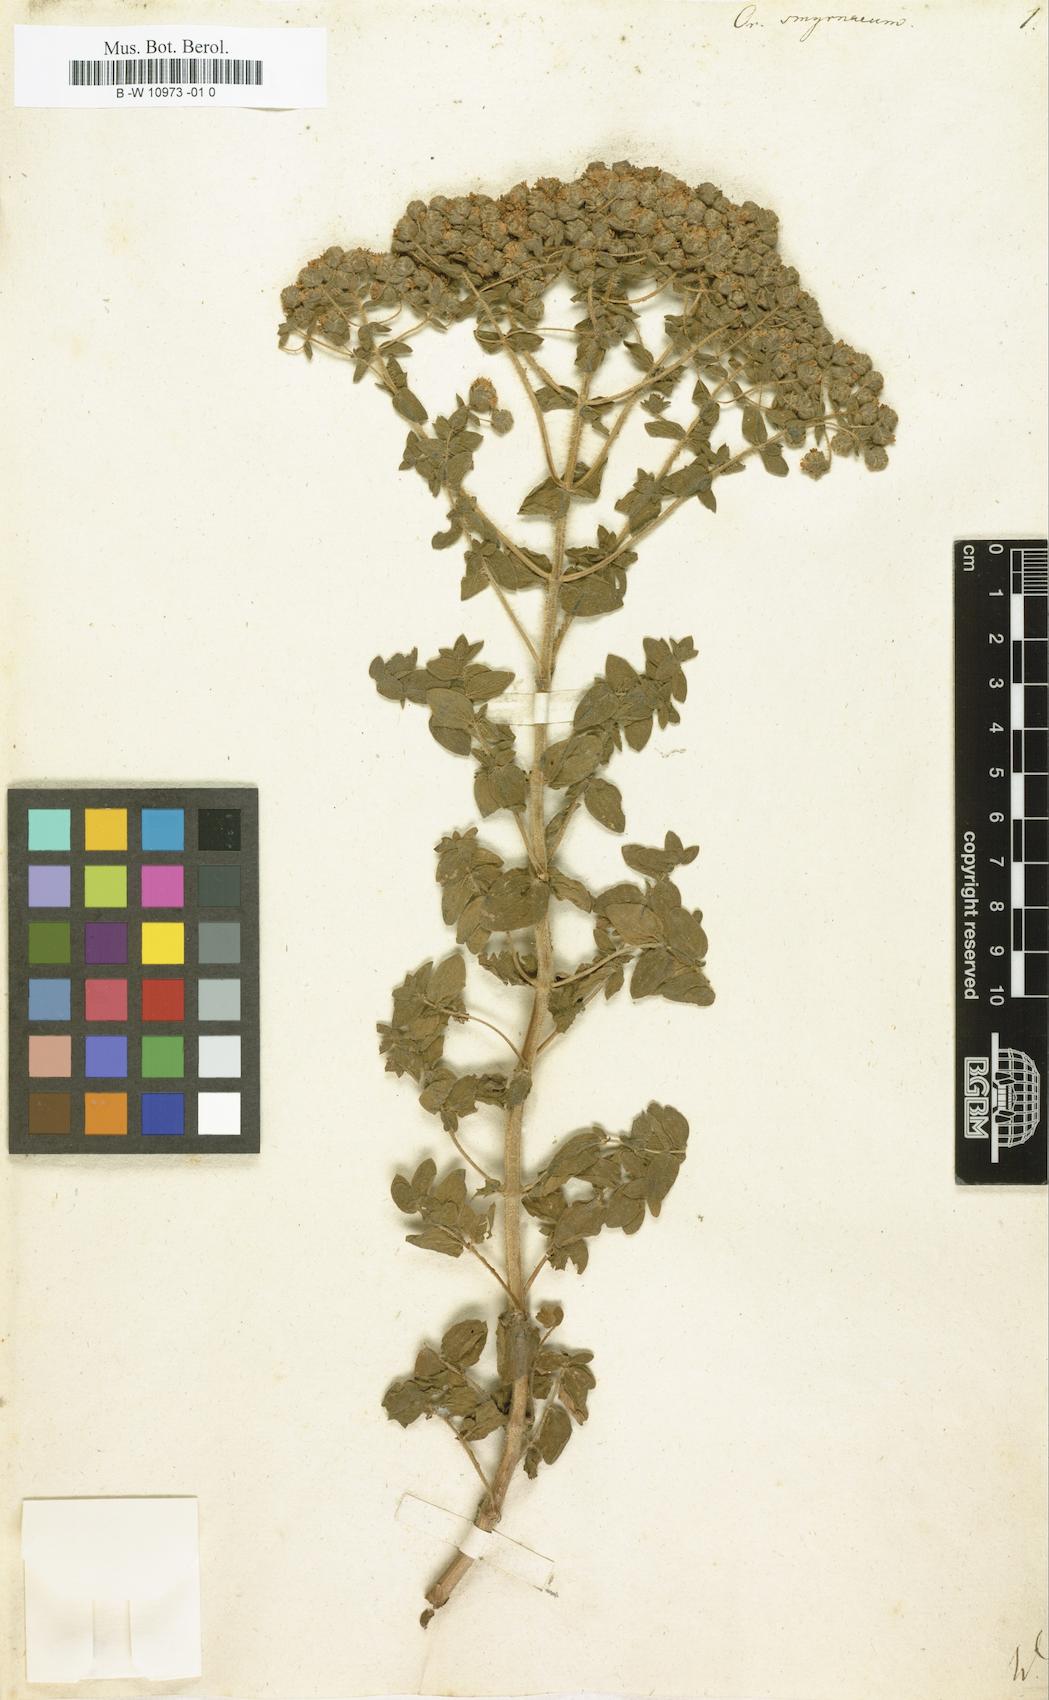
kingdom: Plantae
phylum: Tracheophyta
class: Magnoliopsida
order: Lamiales
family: Lamiaceae
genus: Origanum
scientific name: Origanum
